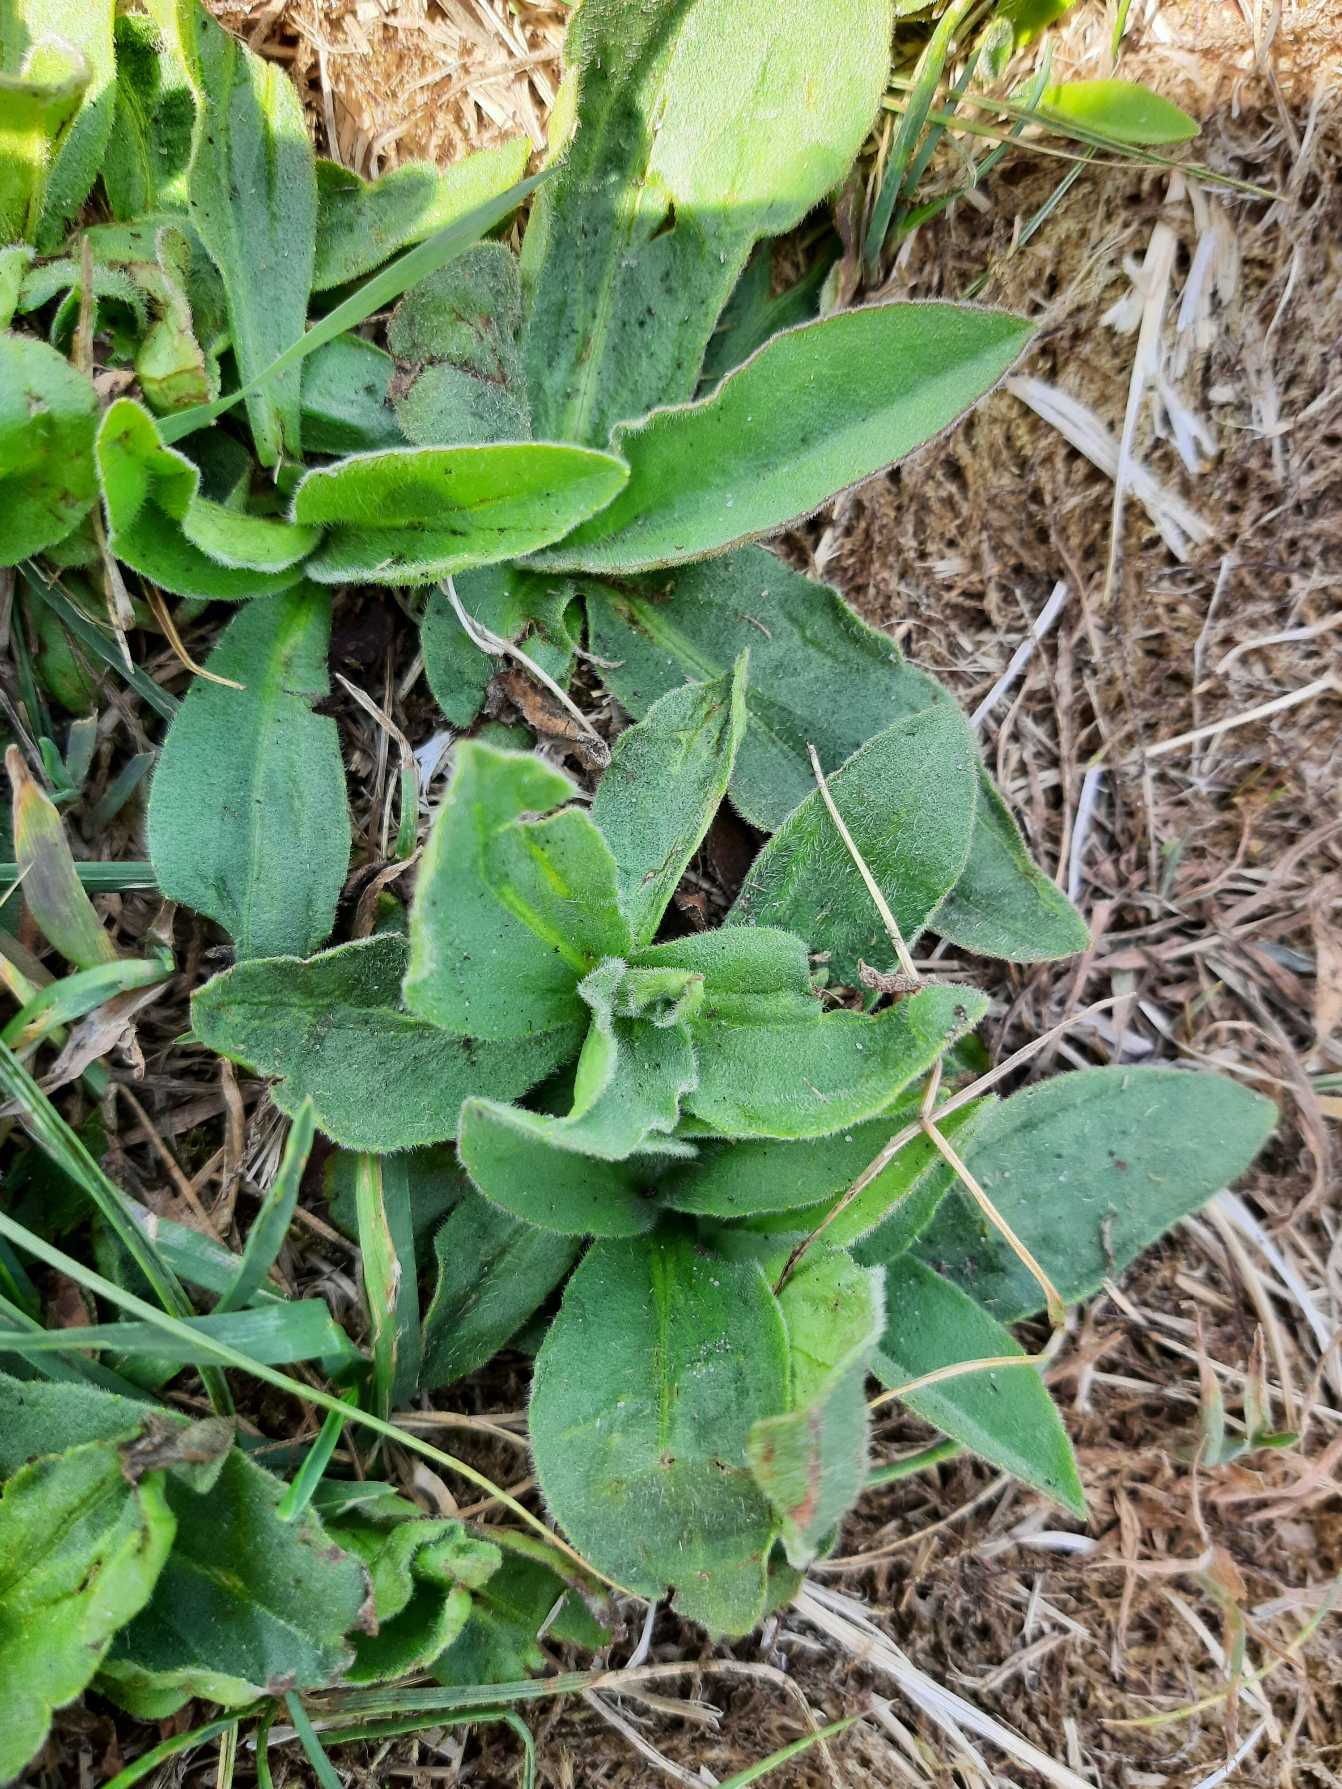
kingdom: Plantae
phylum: Tracheophyta
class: Magnoliopsida
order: Asterales
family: Asteraceae
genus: Arnica
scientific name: Arnica montana
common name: Guldblomme
